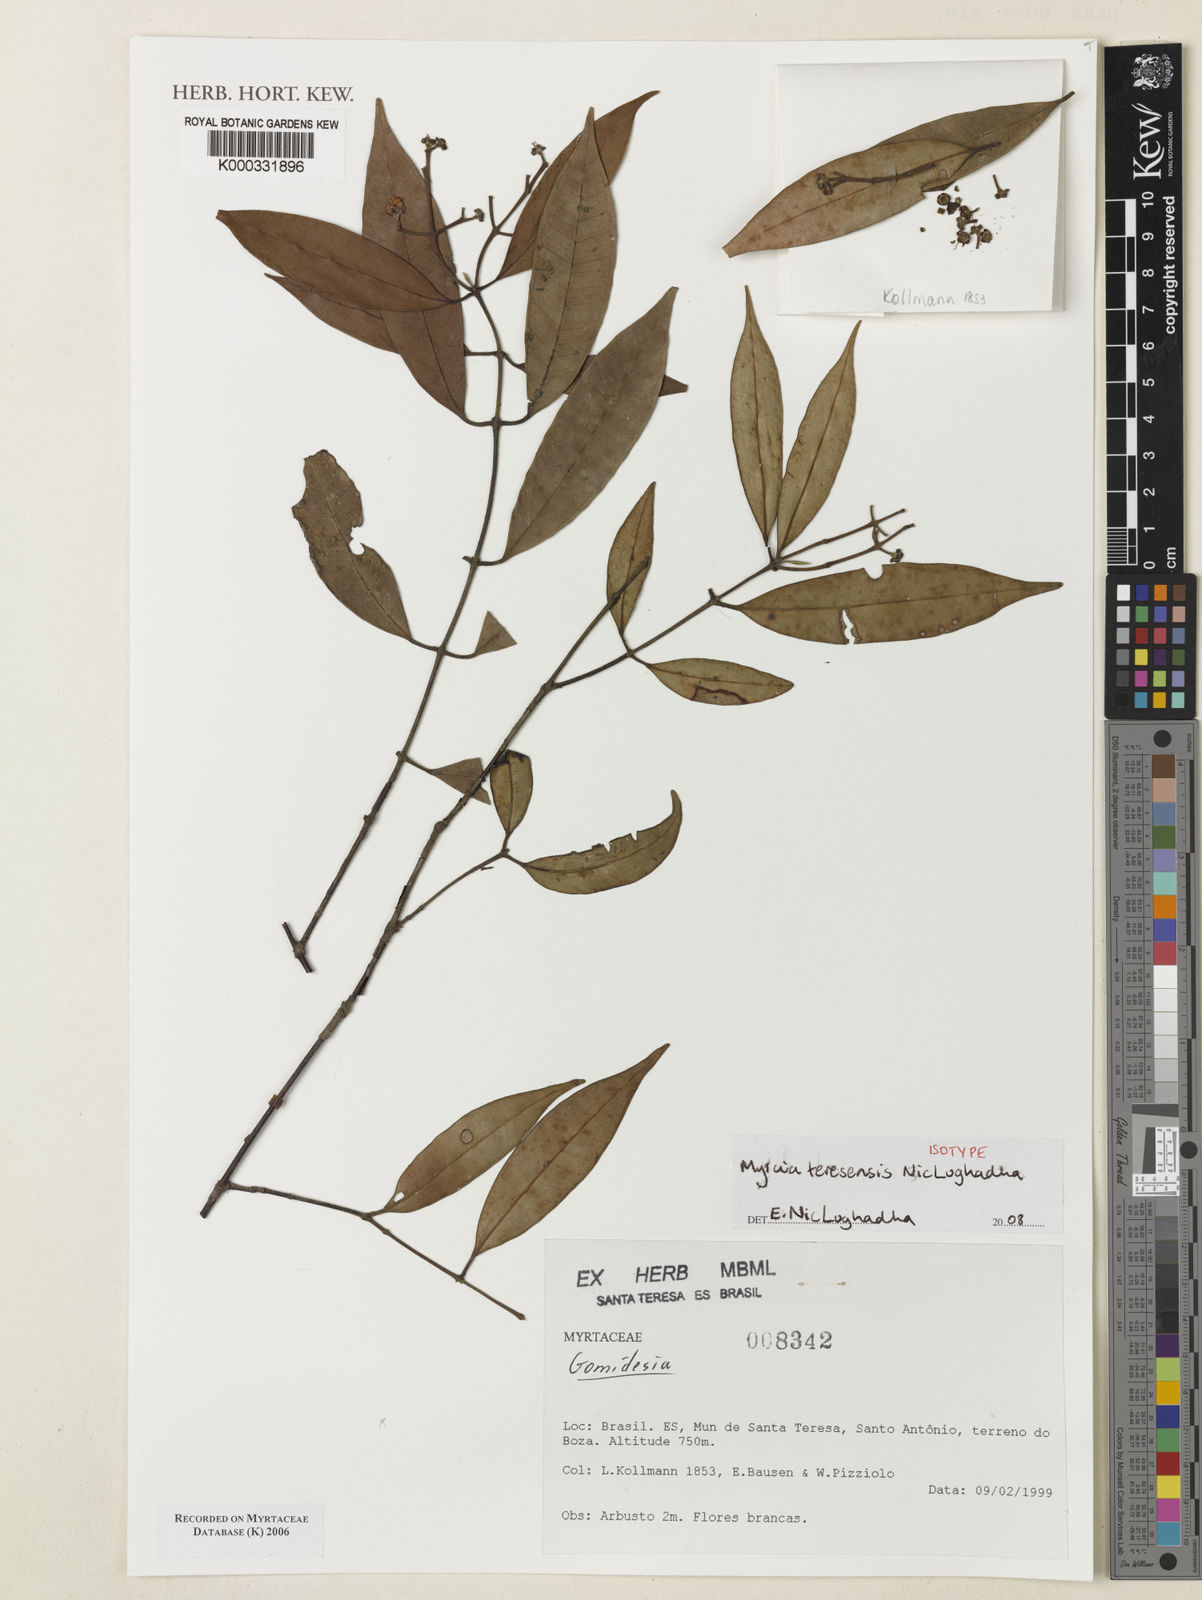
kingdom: Plantae
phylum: Tracheophyta
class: Magnoliopsida
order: Myrtales
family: Myrtaceae
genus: Myrcia
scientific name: Myrcia teresensis
